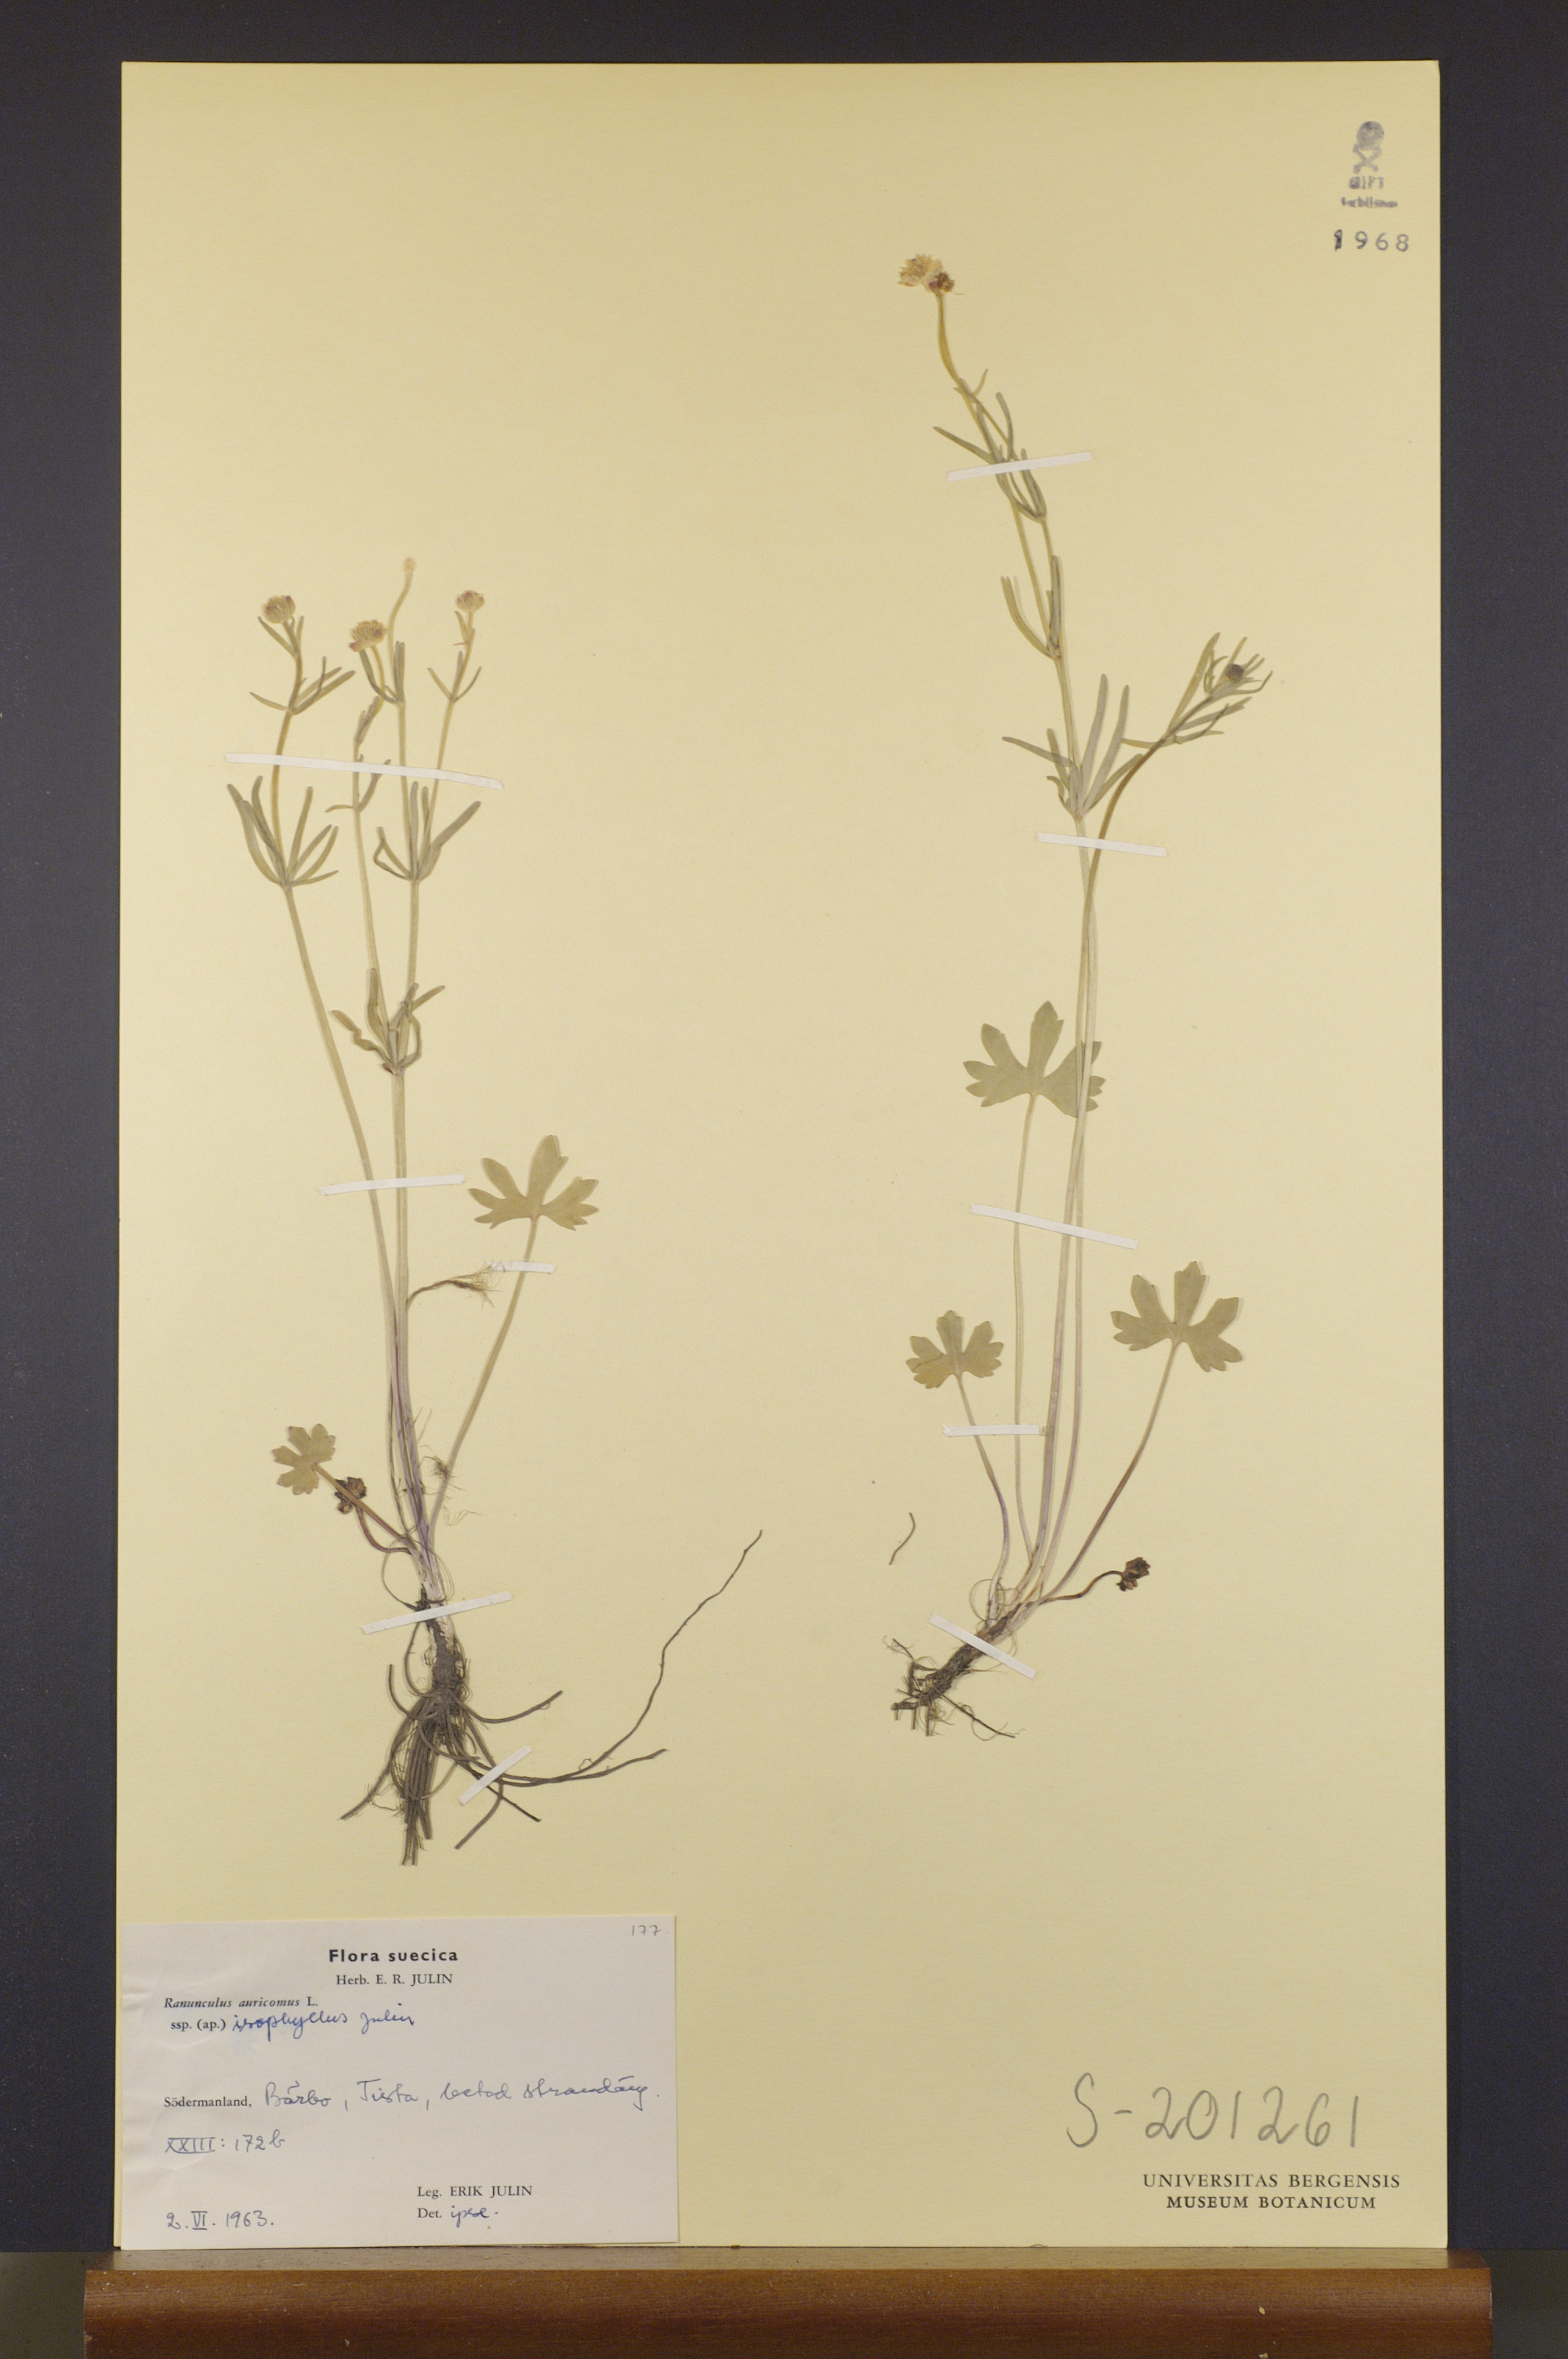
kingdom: Plantae
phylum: Tracheophyta
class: Magnoliopsida
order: Ranunculales
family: Ranunculaceae
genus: Ranunculus
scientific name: Ranunculus isophyllus
